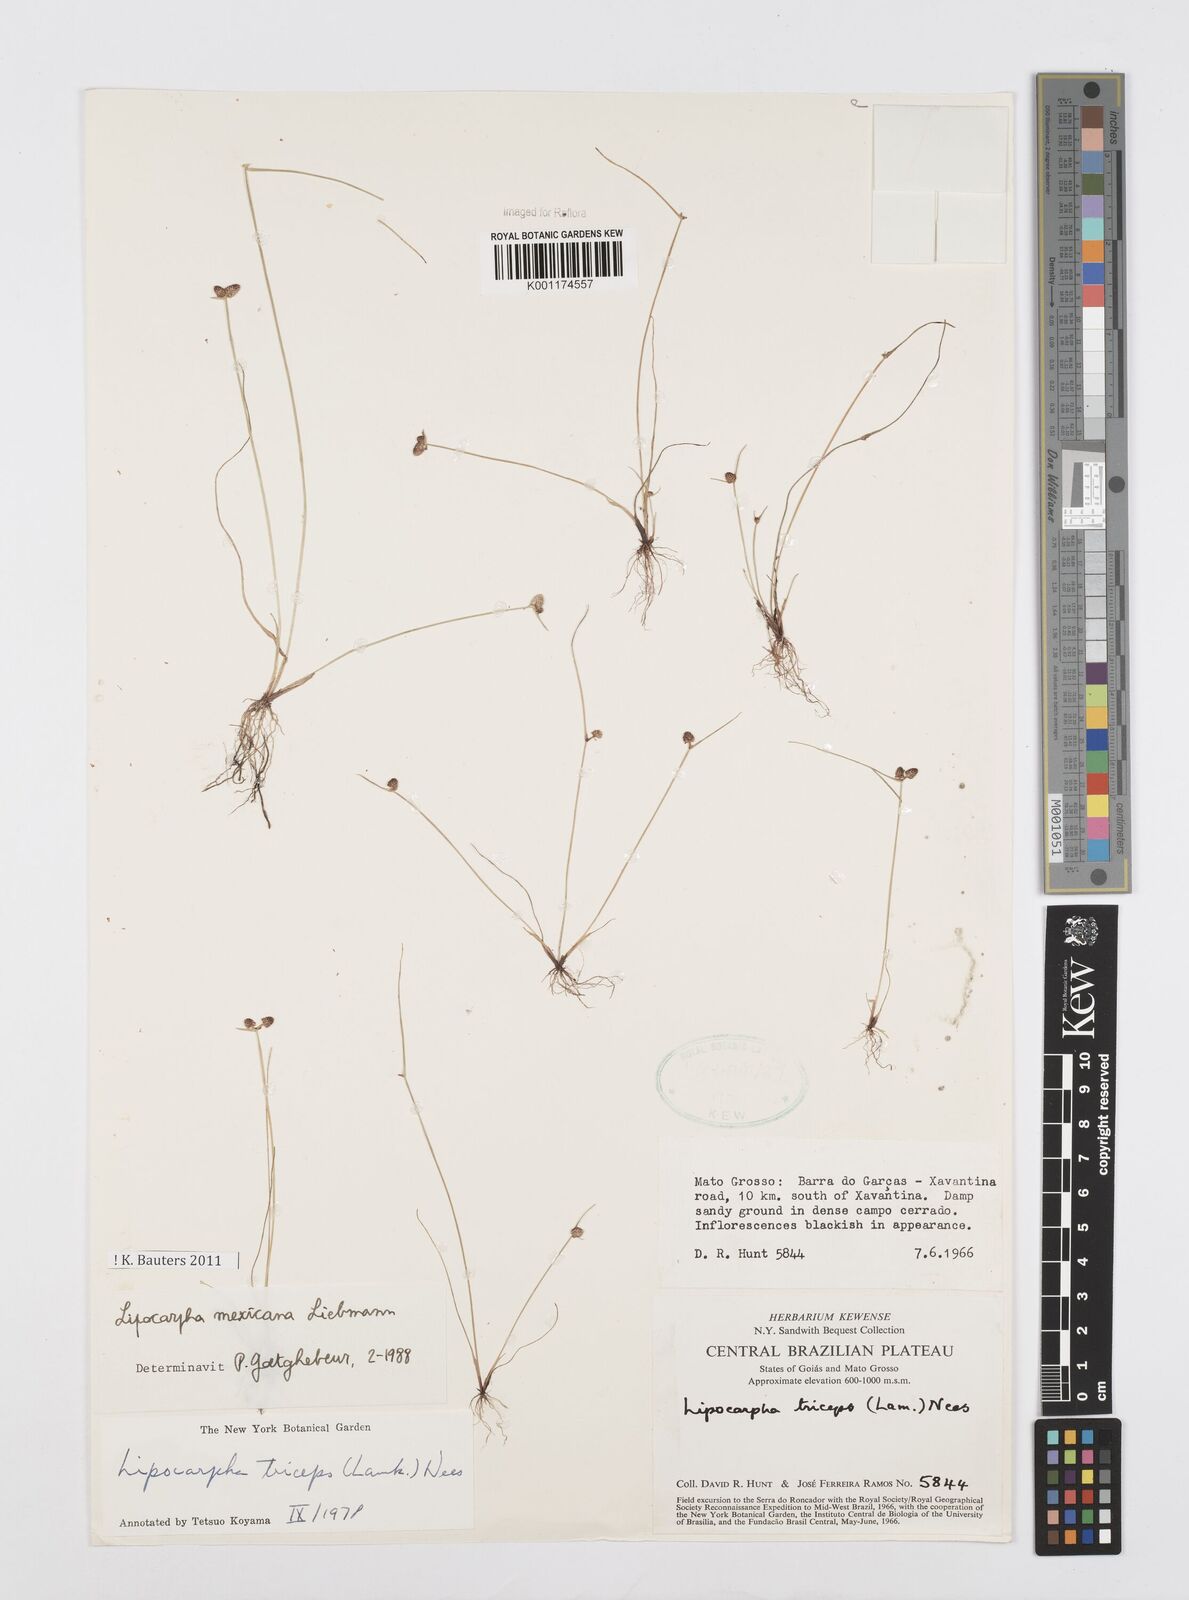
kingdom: Plantae
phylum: Tracheophyta
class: Liliopsida
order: Poales
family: Cyperaceae
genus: Cyperus
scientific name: Cyperus digitatus
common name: Finger flatsedge
